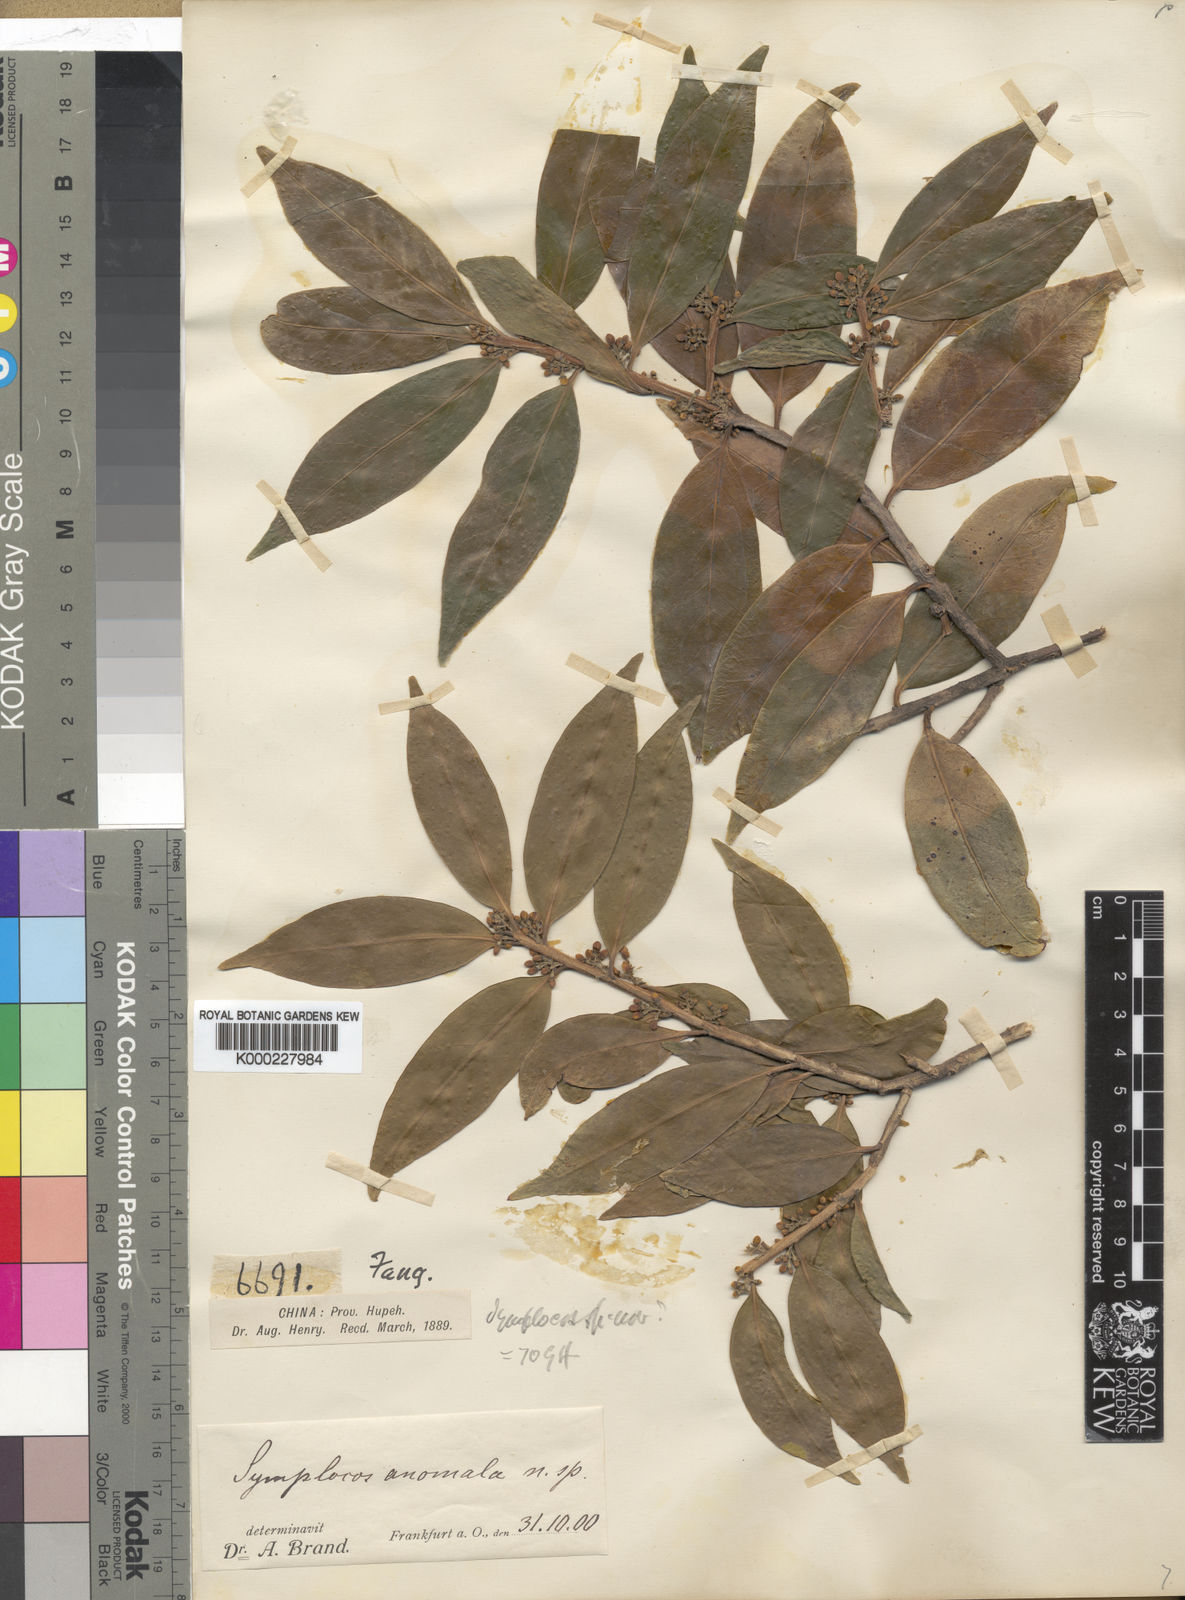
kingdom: Plantae
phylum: Tracheophyta
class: Magnoliopsida
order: Ericales
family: Symplocaceae
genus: Symplocos
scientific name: Symplocos anomala
